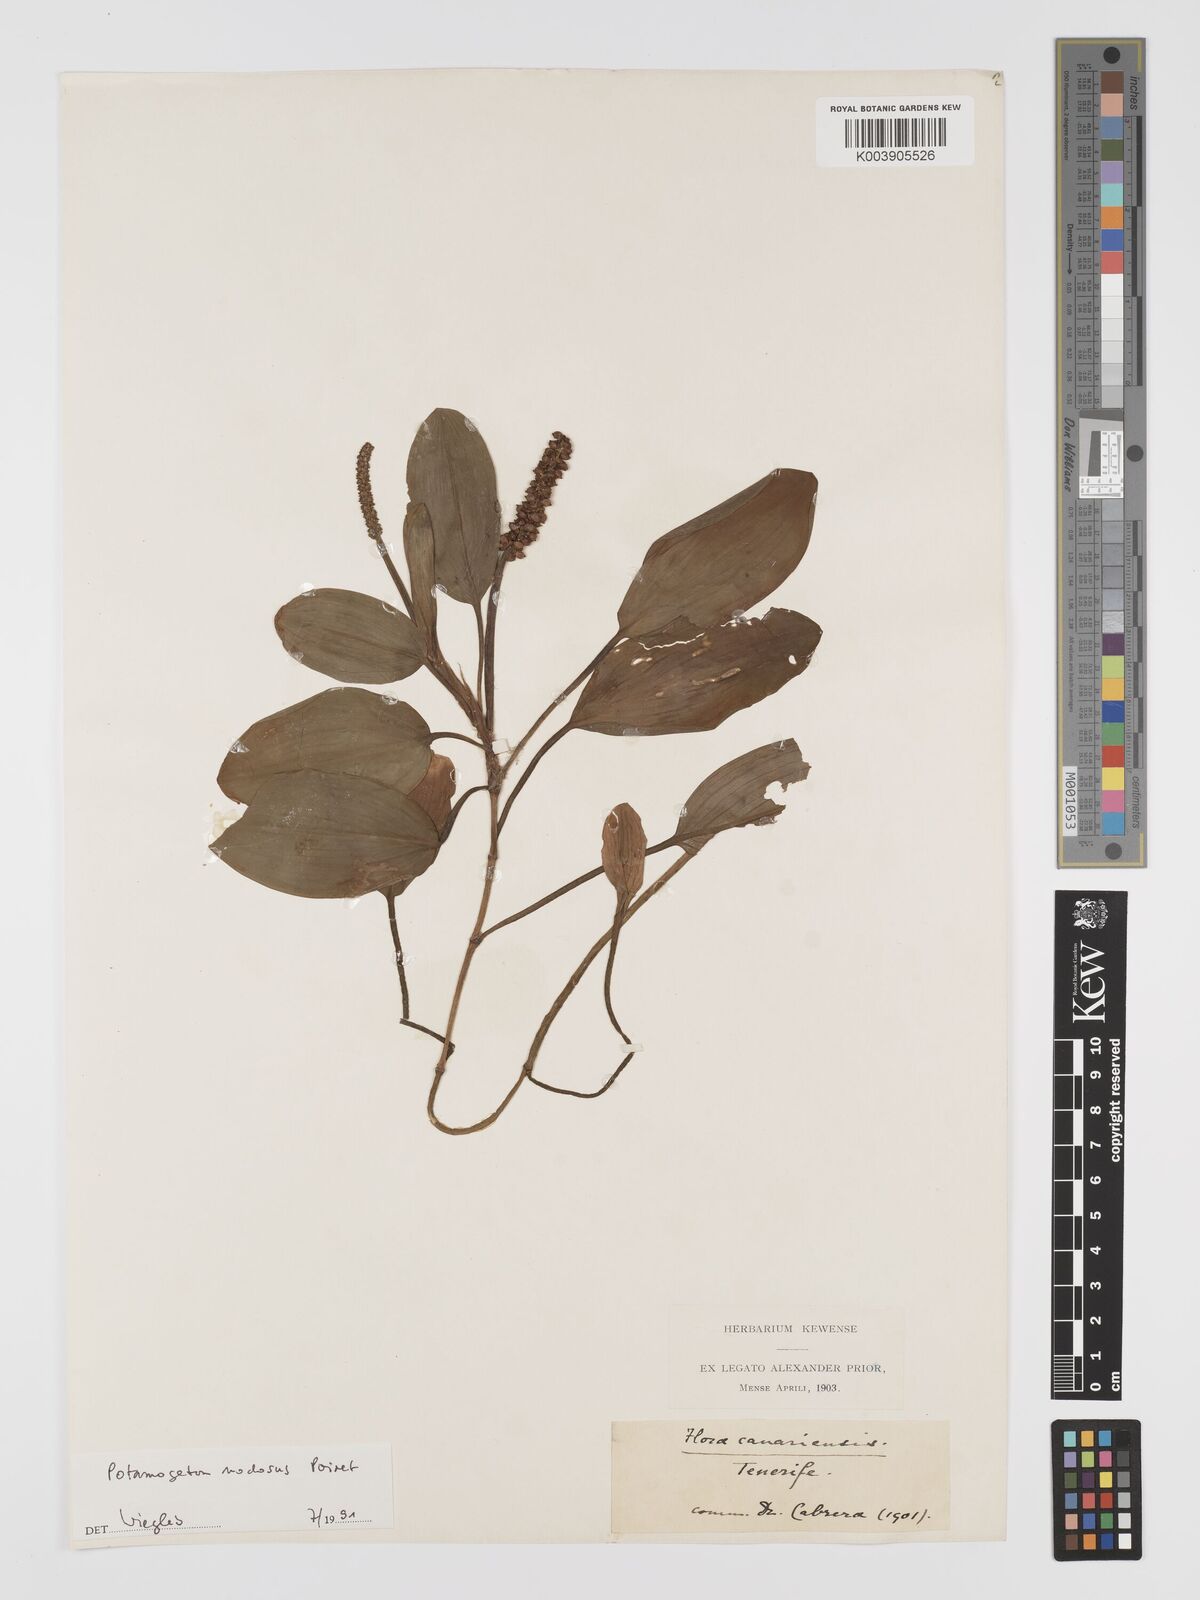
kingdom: Plantae
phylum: Tracheophyta
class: Liliopsida
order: Alismatales
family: Potamogetonaceae
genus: Potamogeton
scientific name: Potamogeton nodosus
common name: Loddon pondweed
